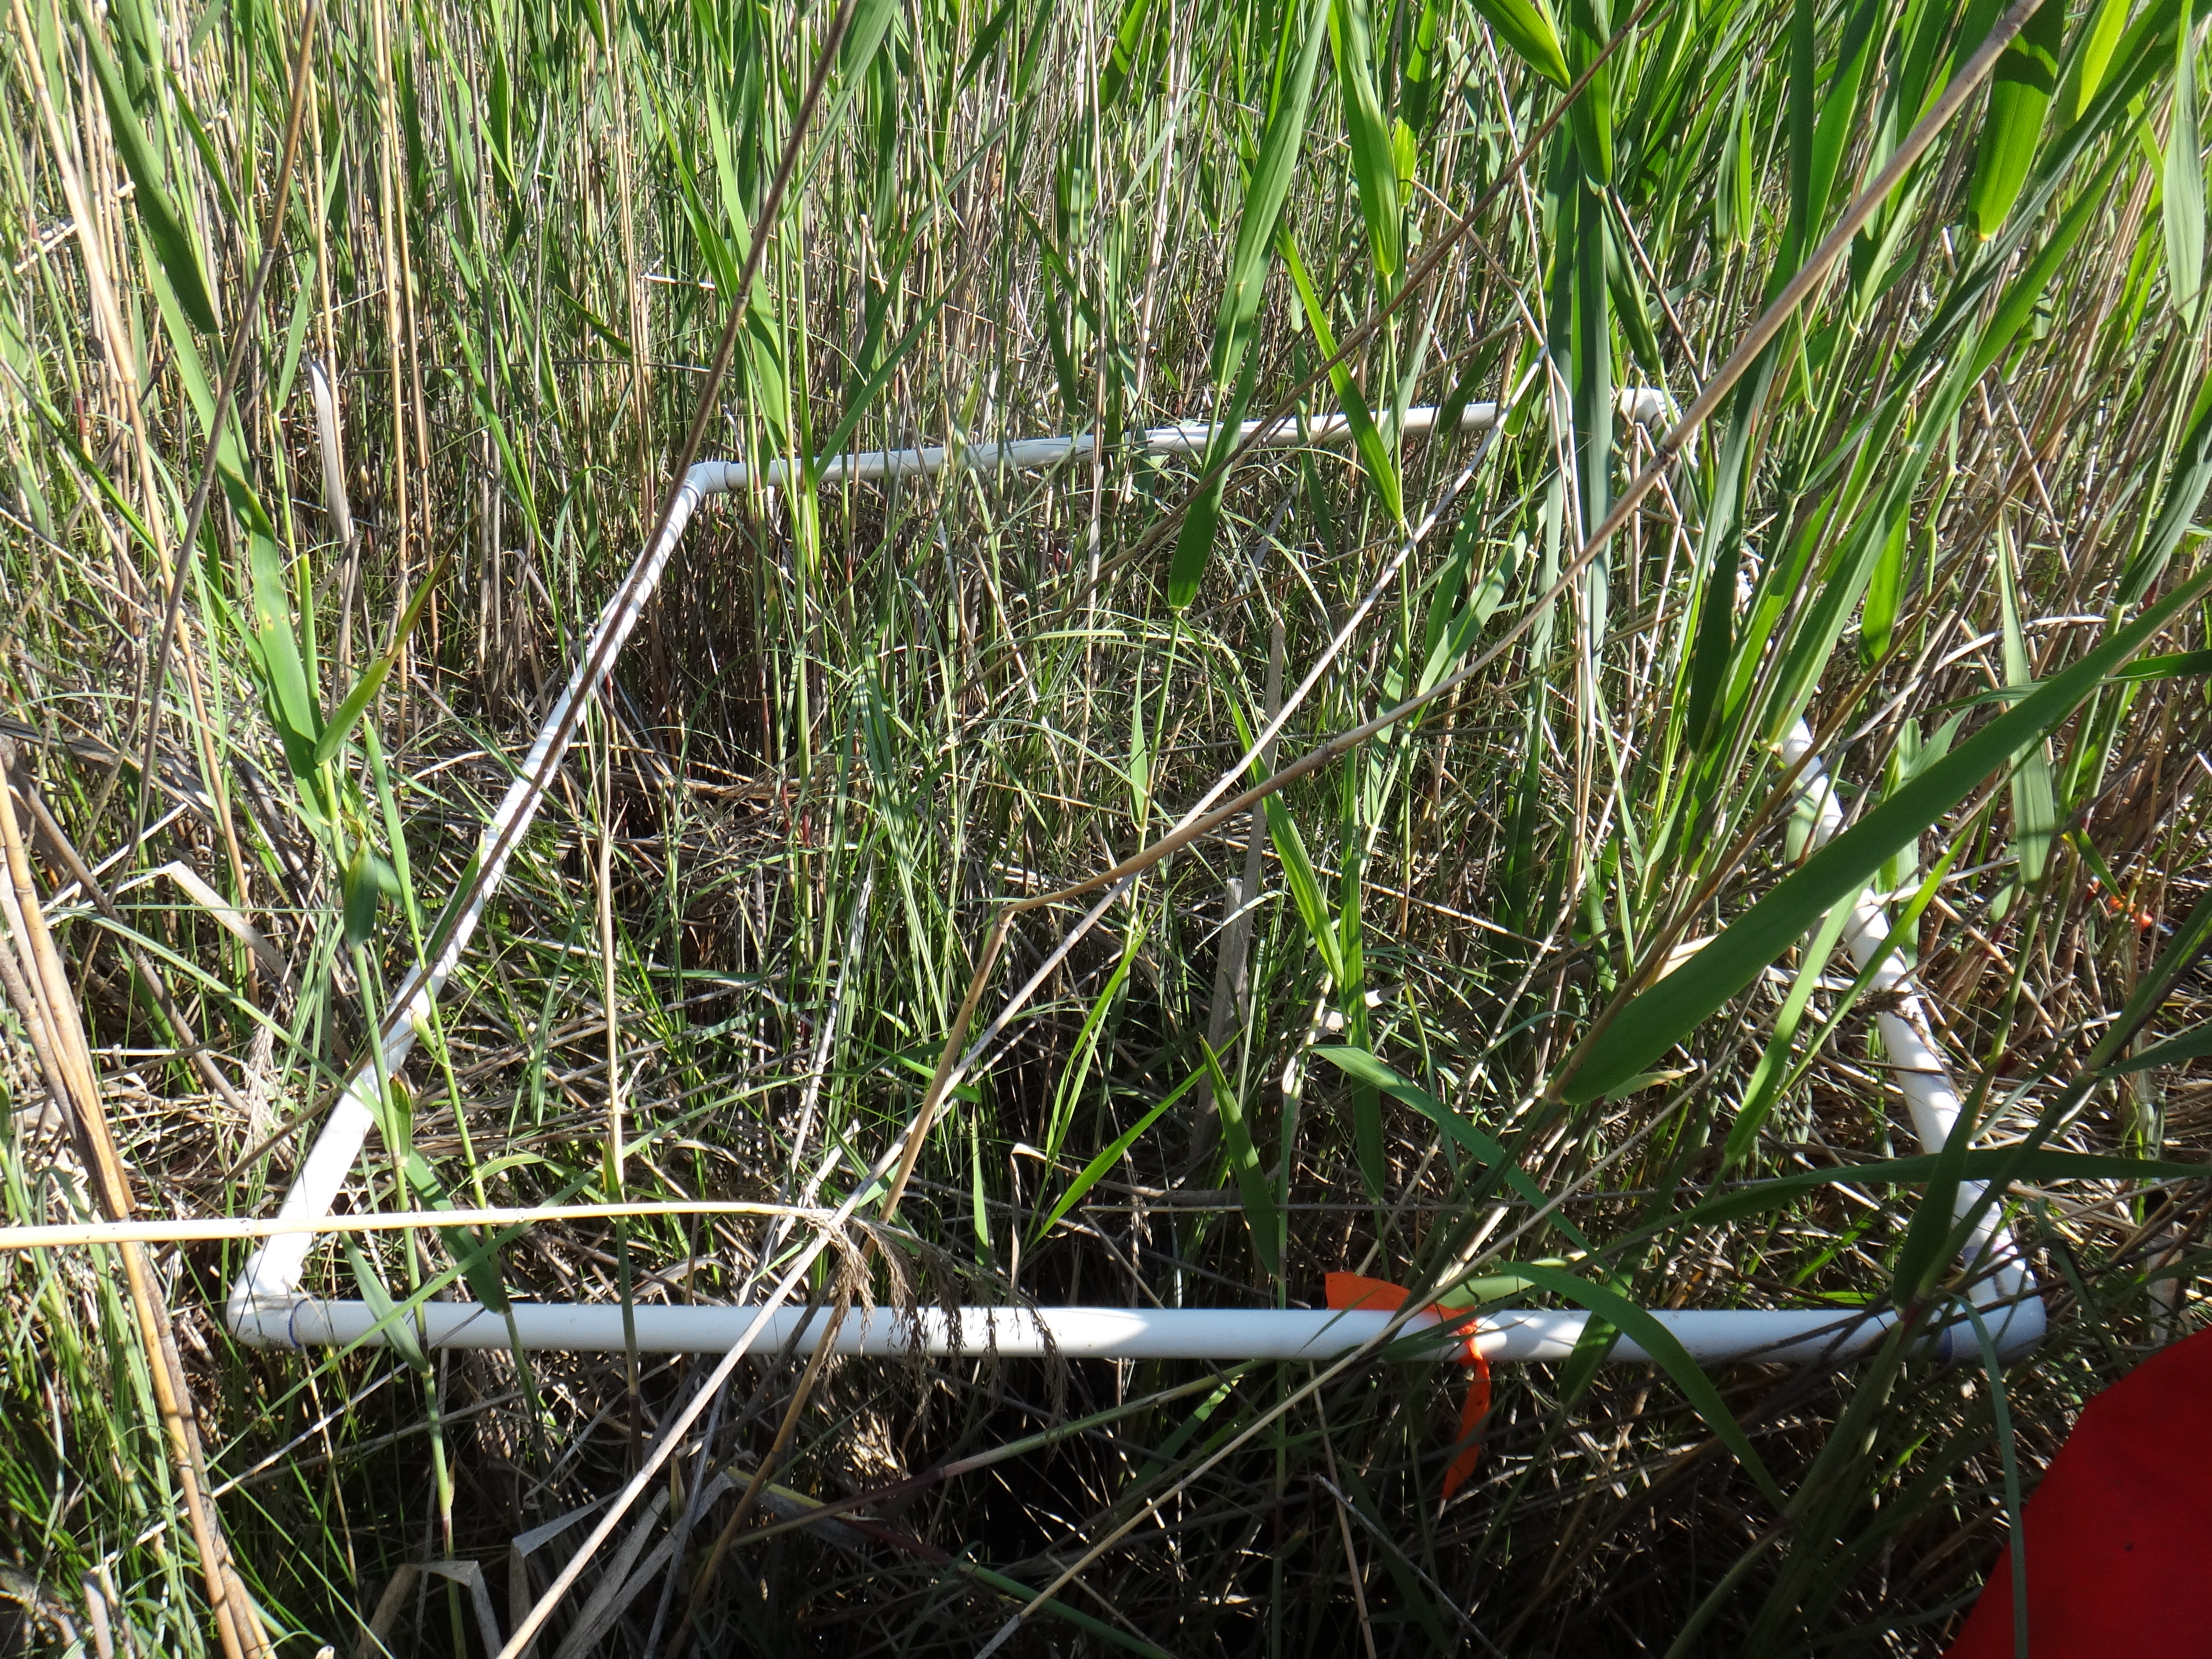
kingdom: Plantae
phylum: Tracheophyta
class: Magnoliopsida
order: Asterales
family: Campanulaceae
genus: Palustricodon
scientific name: Palustricodon aparinoides
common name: Bedstraw bellflower
